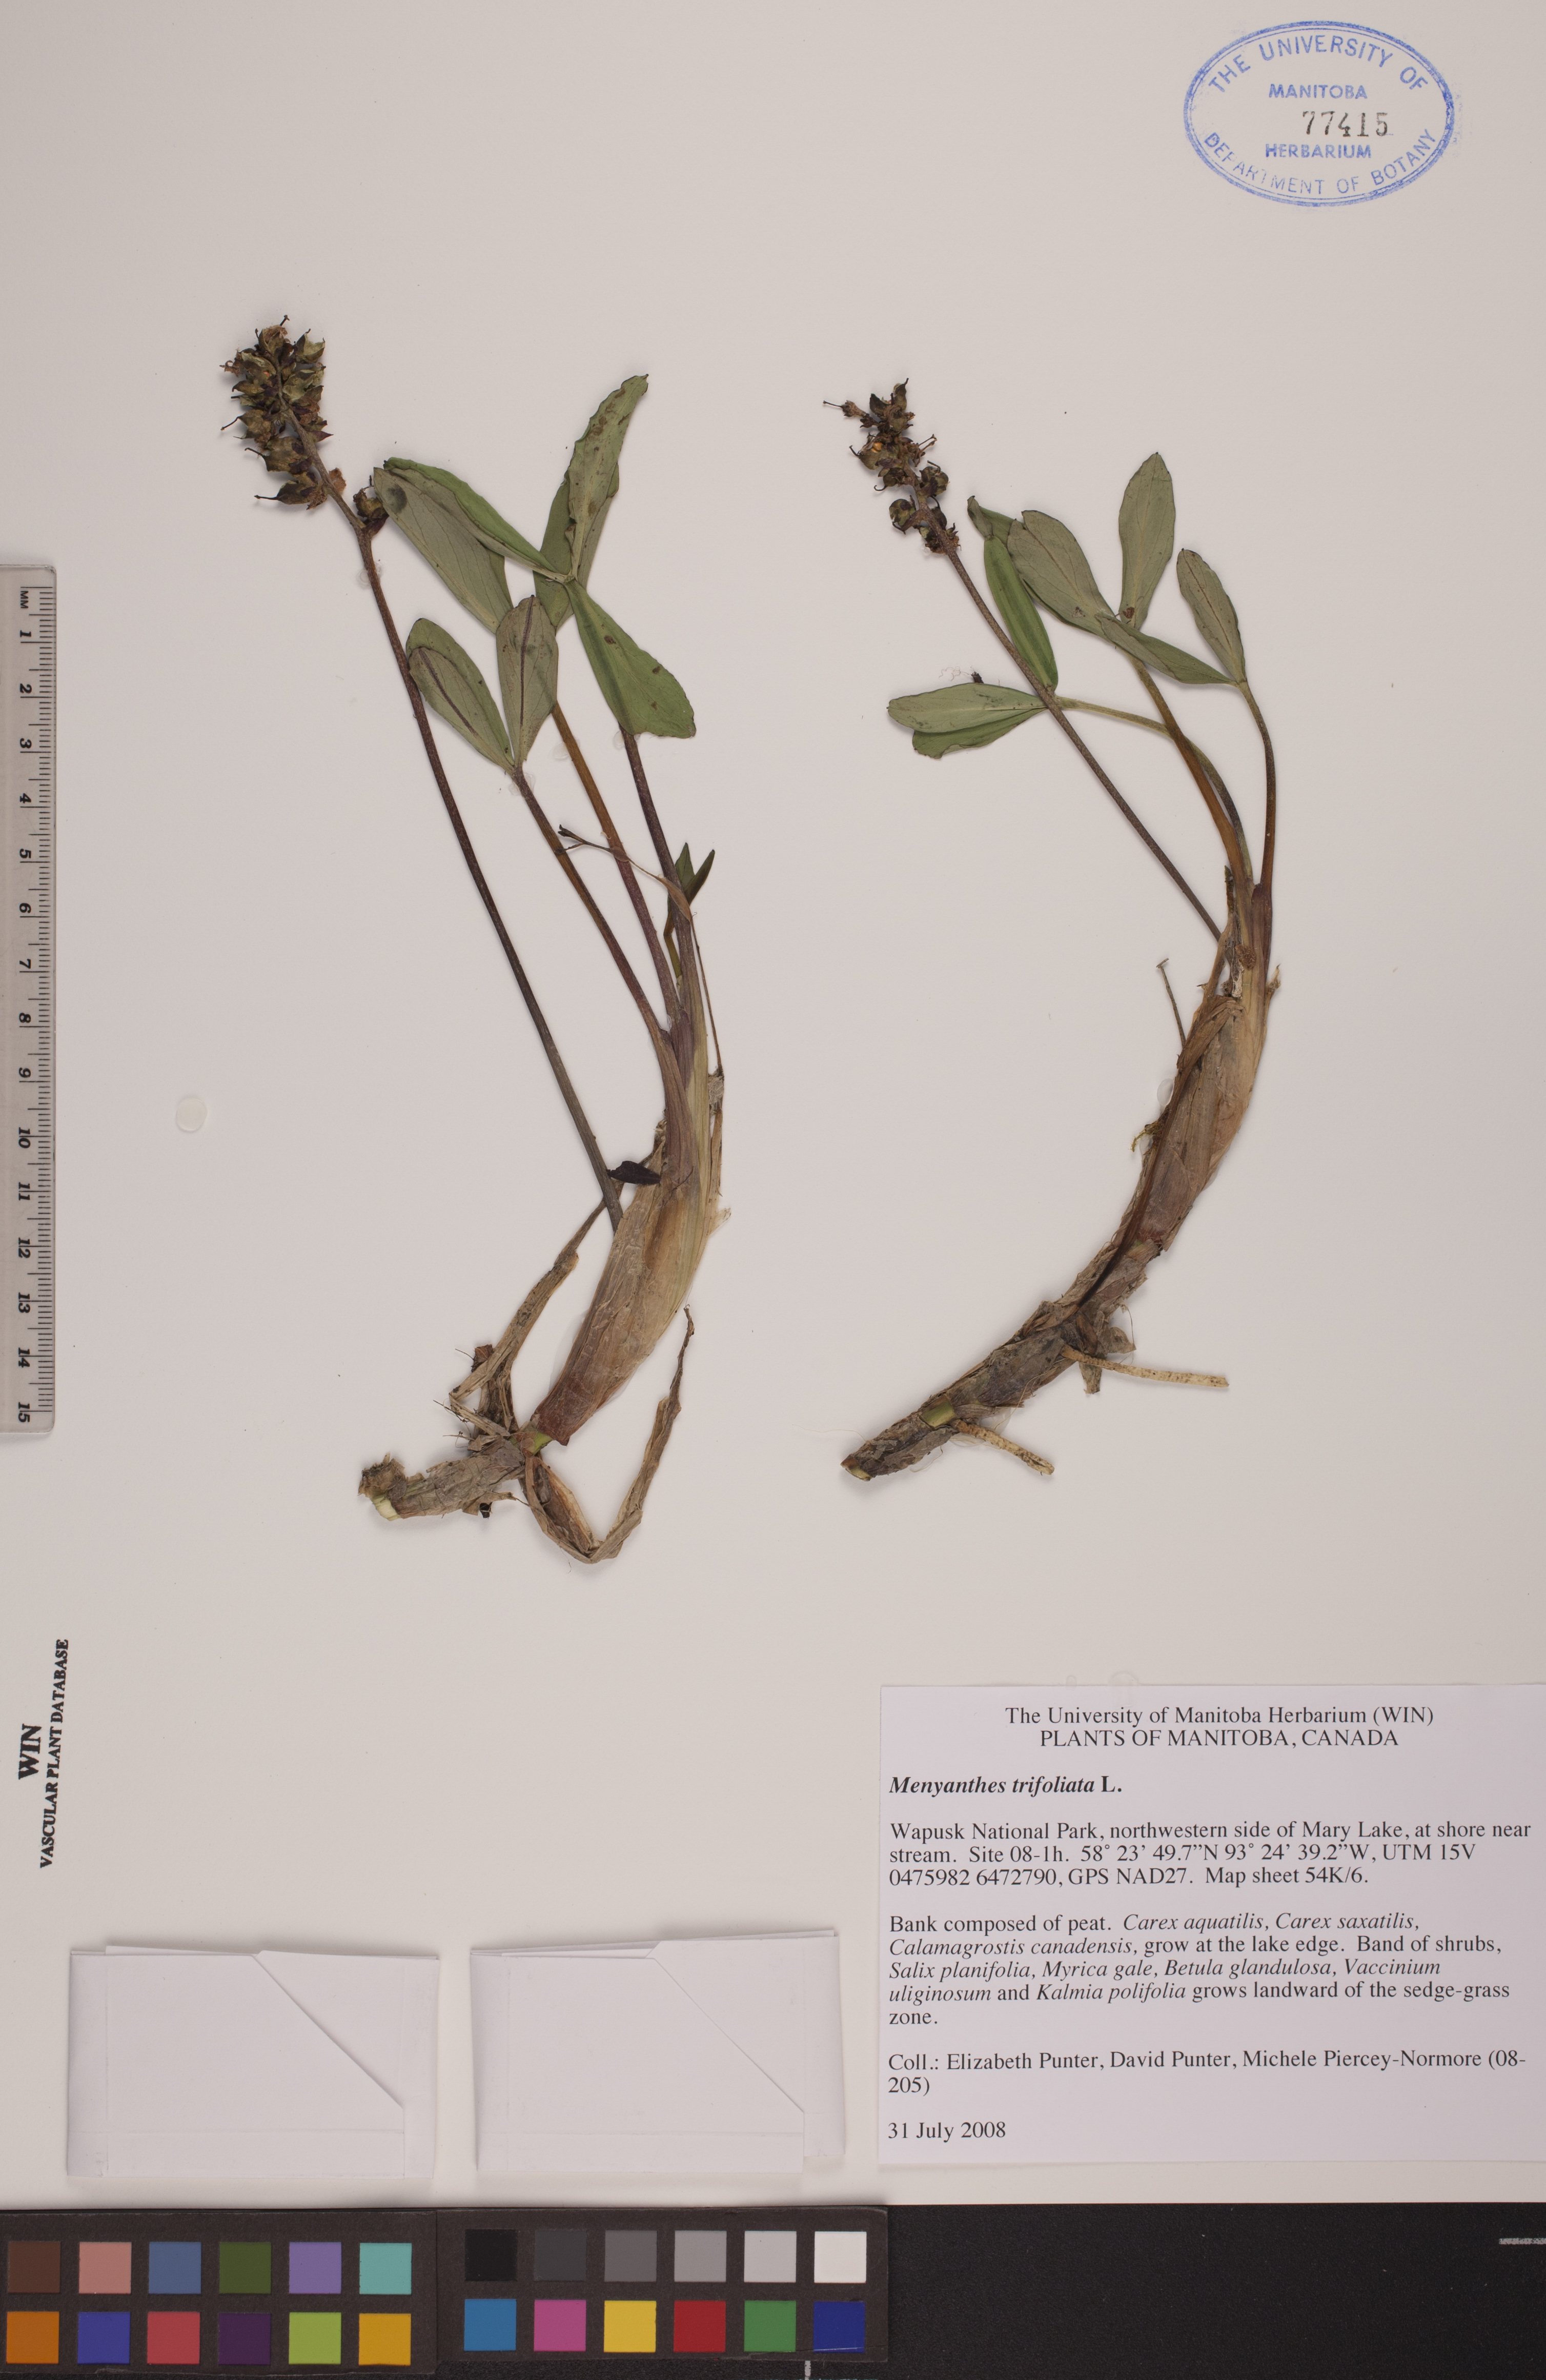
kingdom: Plantae
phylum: Tracheophyta
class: Magnoliopsida
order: Asterales
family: Menyanthaceae
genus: Menyanthes
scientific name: Menyanthes trifoliata
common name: Bogbean
